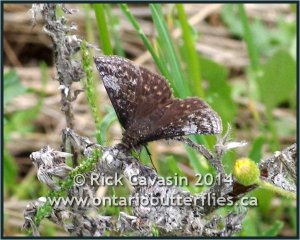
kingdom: Animalia
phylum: Arthropoda
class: Insecta
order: Lepidoptera
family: Hesperiidae
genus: Erynnis
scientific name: Erynnis icelus
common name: Dreamy Duskywing
